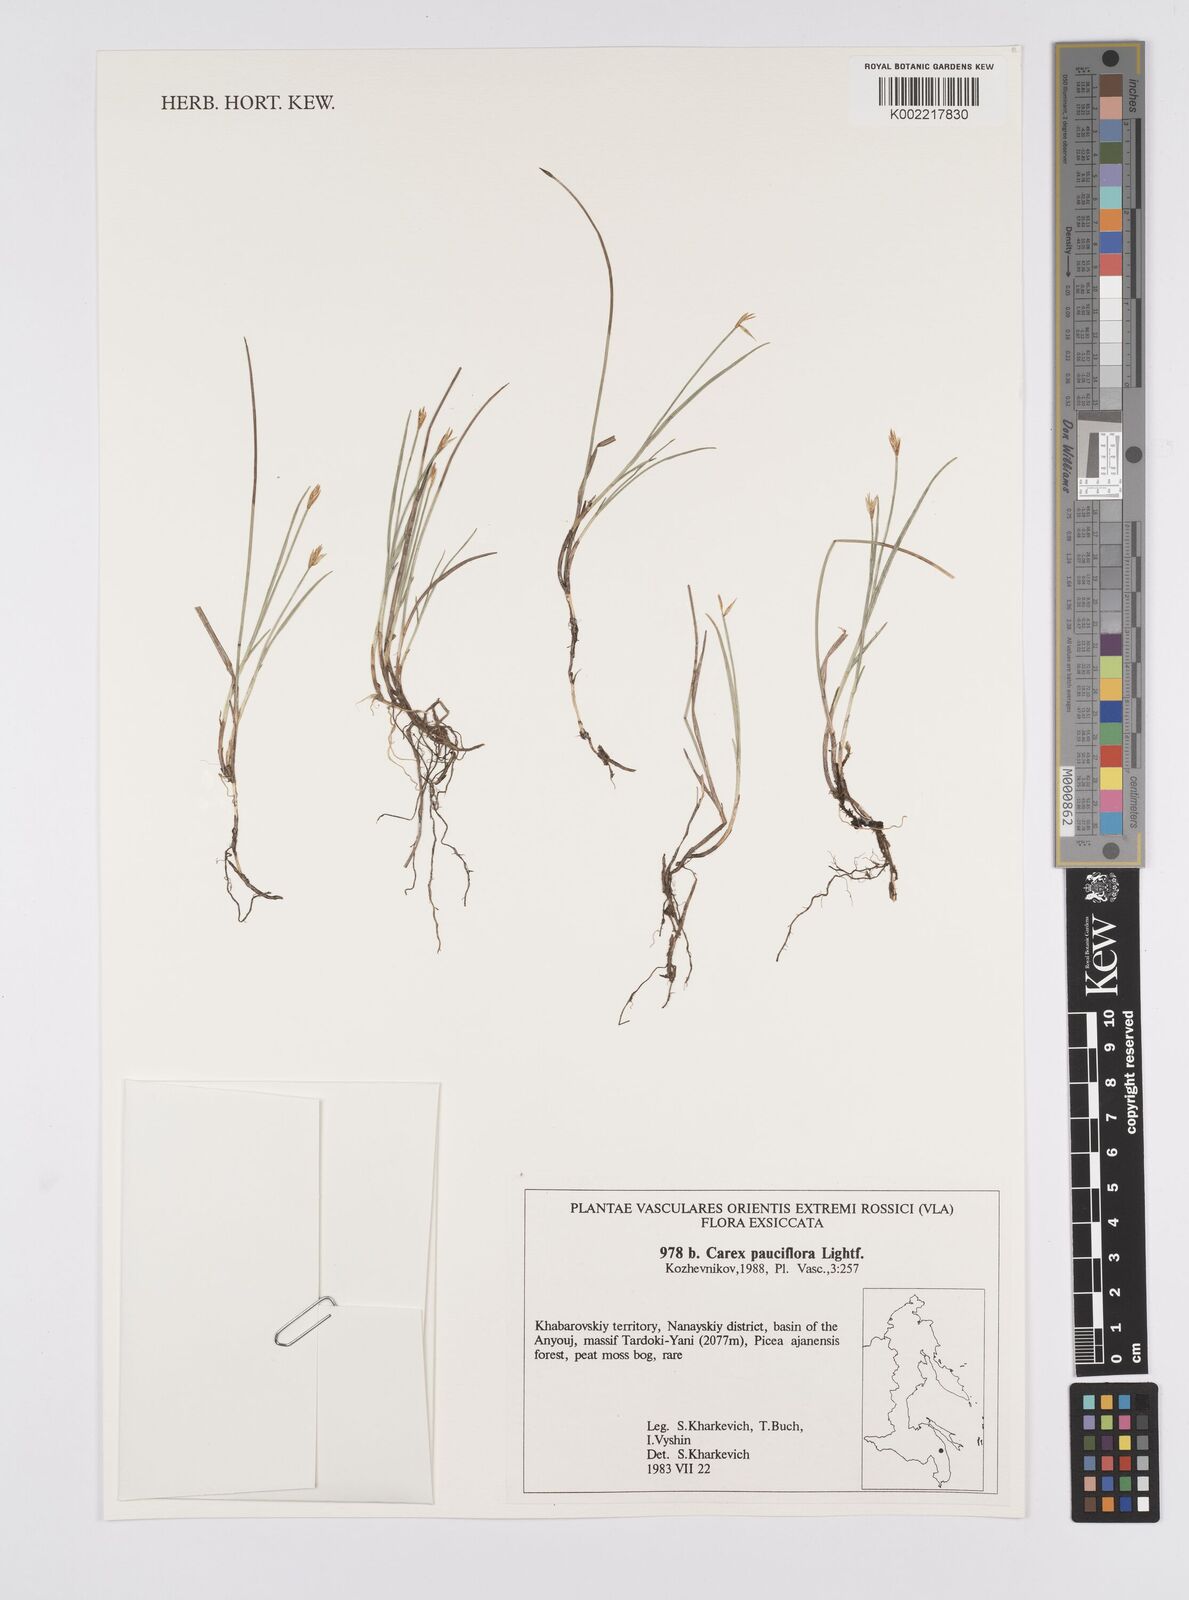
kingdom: Plantae
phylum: Tracheophyta
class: Liliopsida
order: Poales
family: Cyperaceae
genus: Carex
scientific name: Carex pauciflora
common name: Few-flowered sedge
